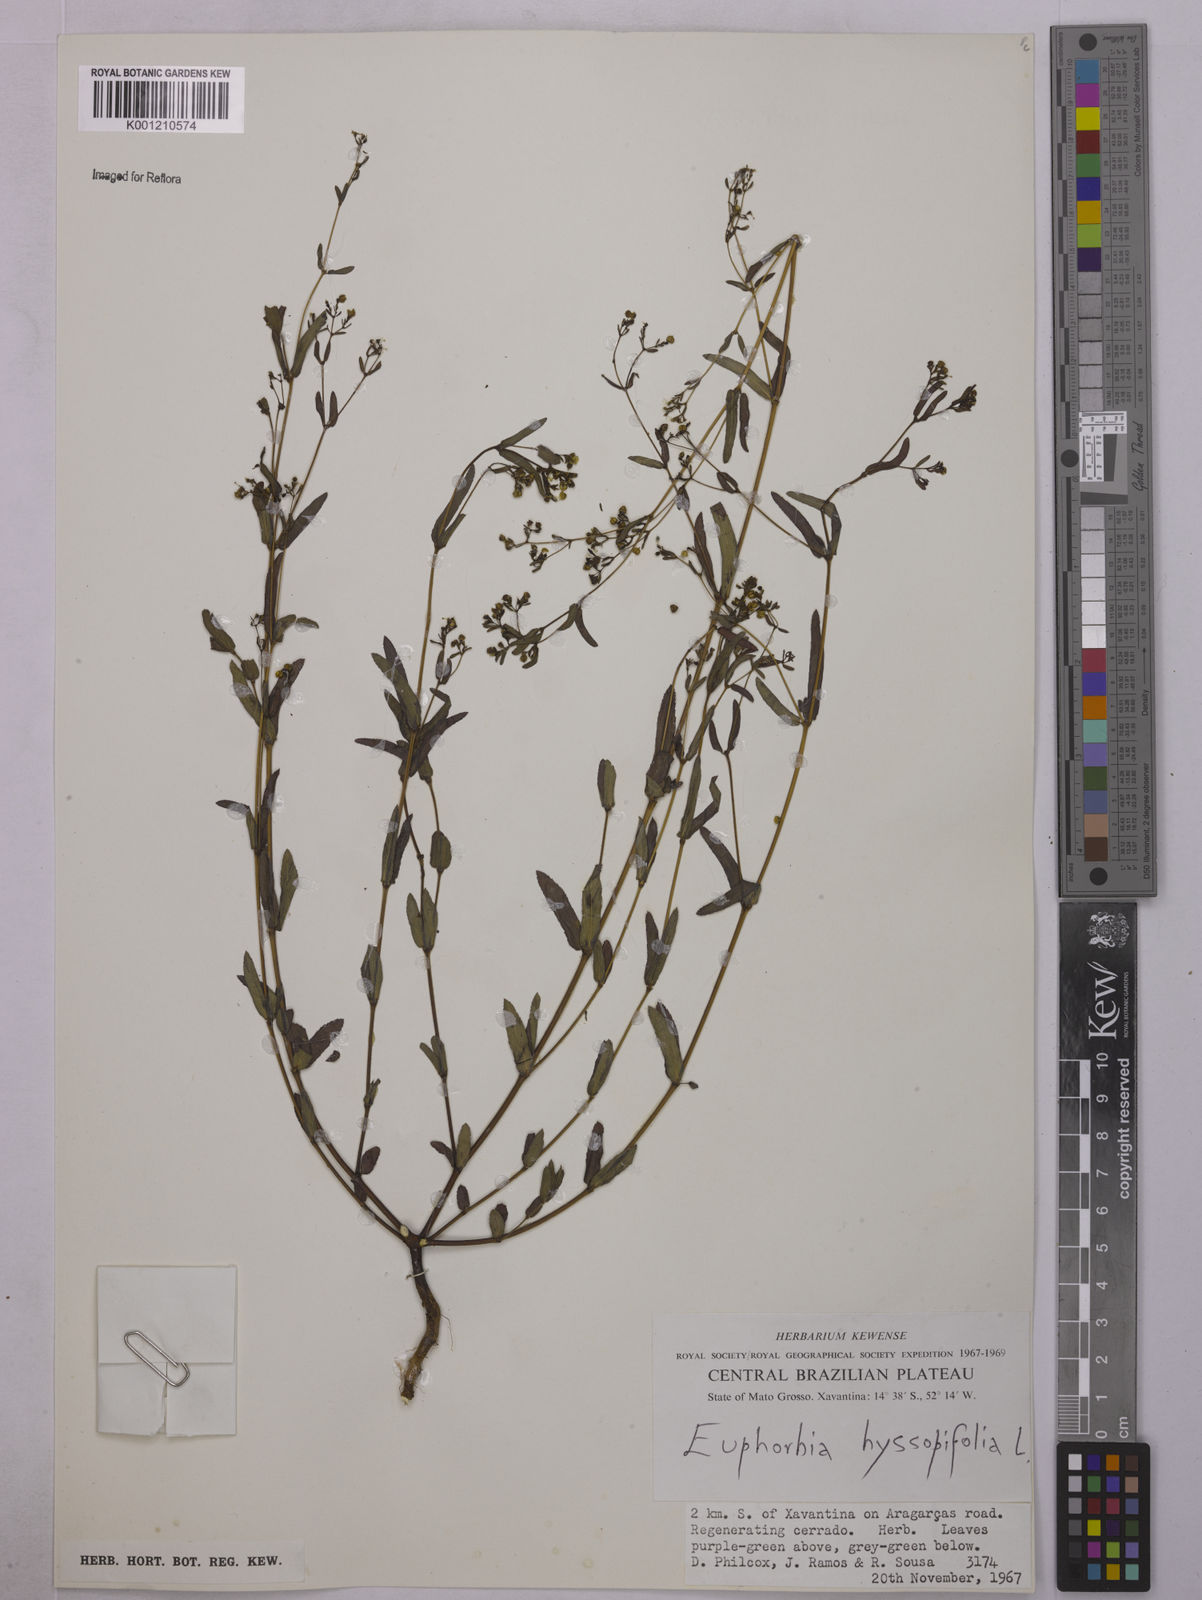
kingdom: Plantae
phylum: Tracheophyta
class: Magnoliopsida
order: Malpighiales
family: Euphorbiaceae
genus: Euphorbia
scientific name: Euphorbia hyssopifolia
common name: Hyssopleaf sandmat
